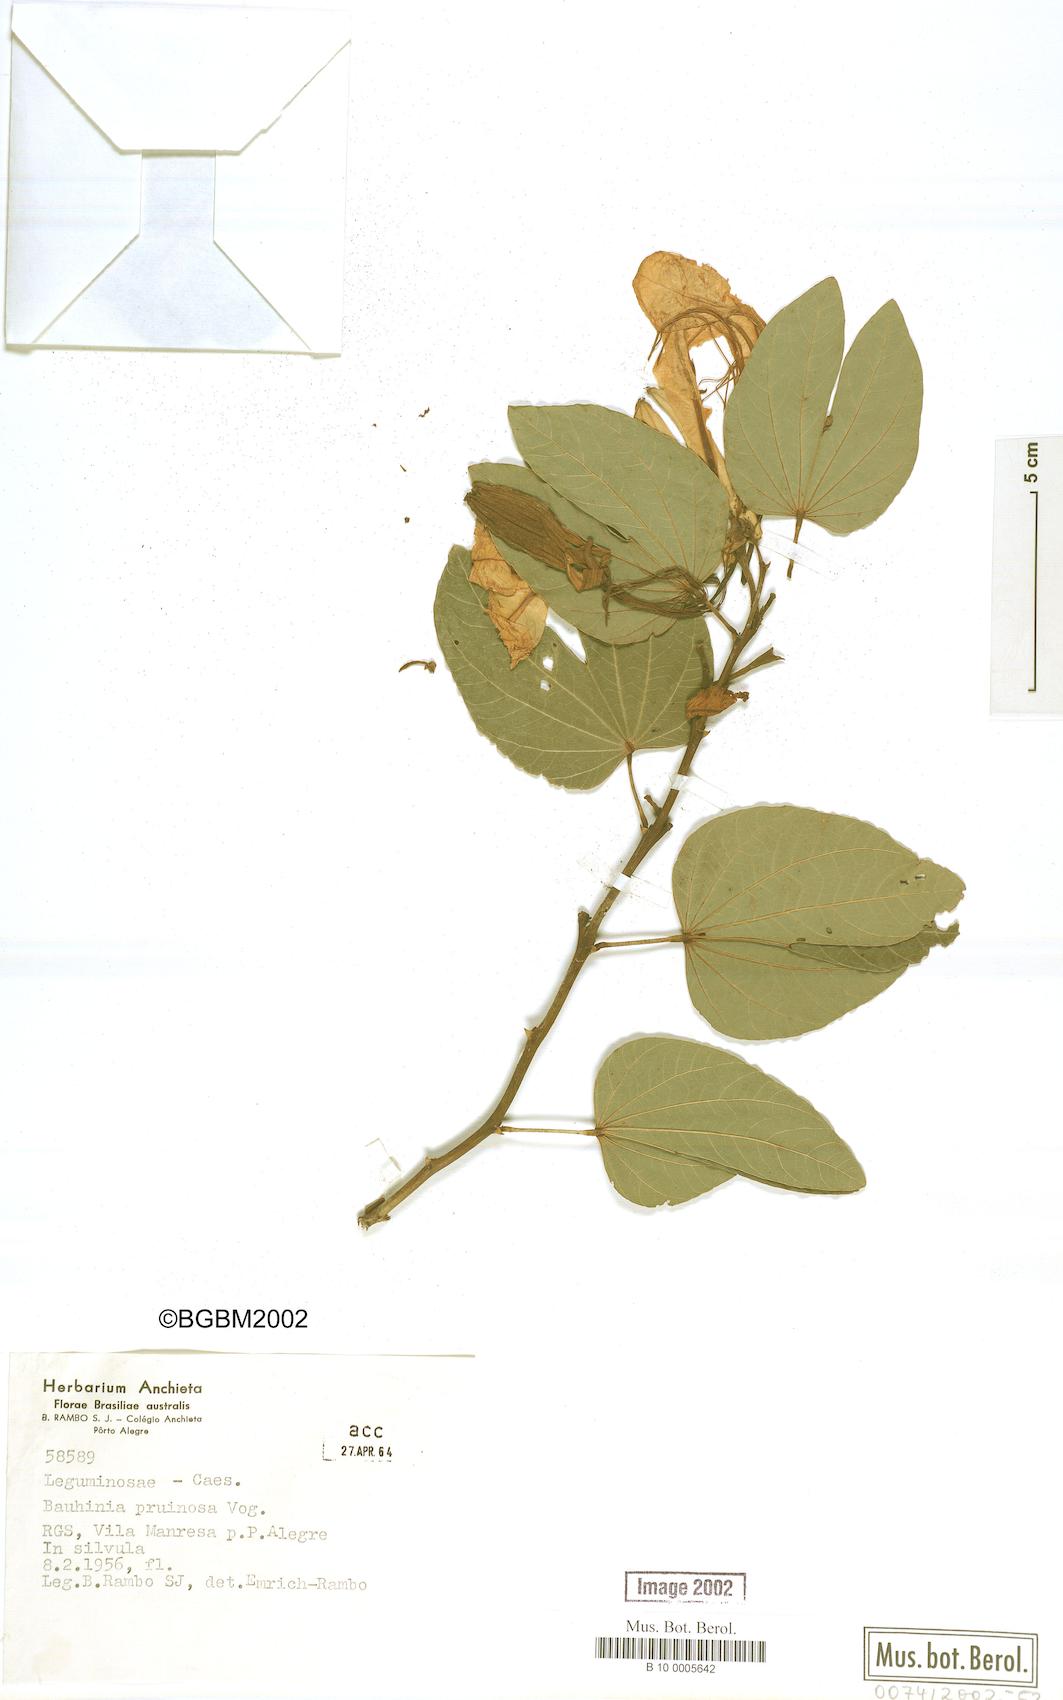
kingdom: Plantae
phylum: Tracheophyta
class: Magnoliopsida
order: Fabales
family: Fabaceae
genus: Bauhinia
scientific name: Bauhinia forficata
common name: Orchid tree
